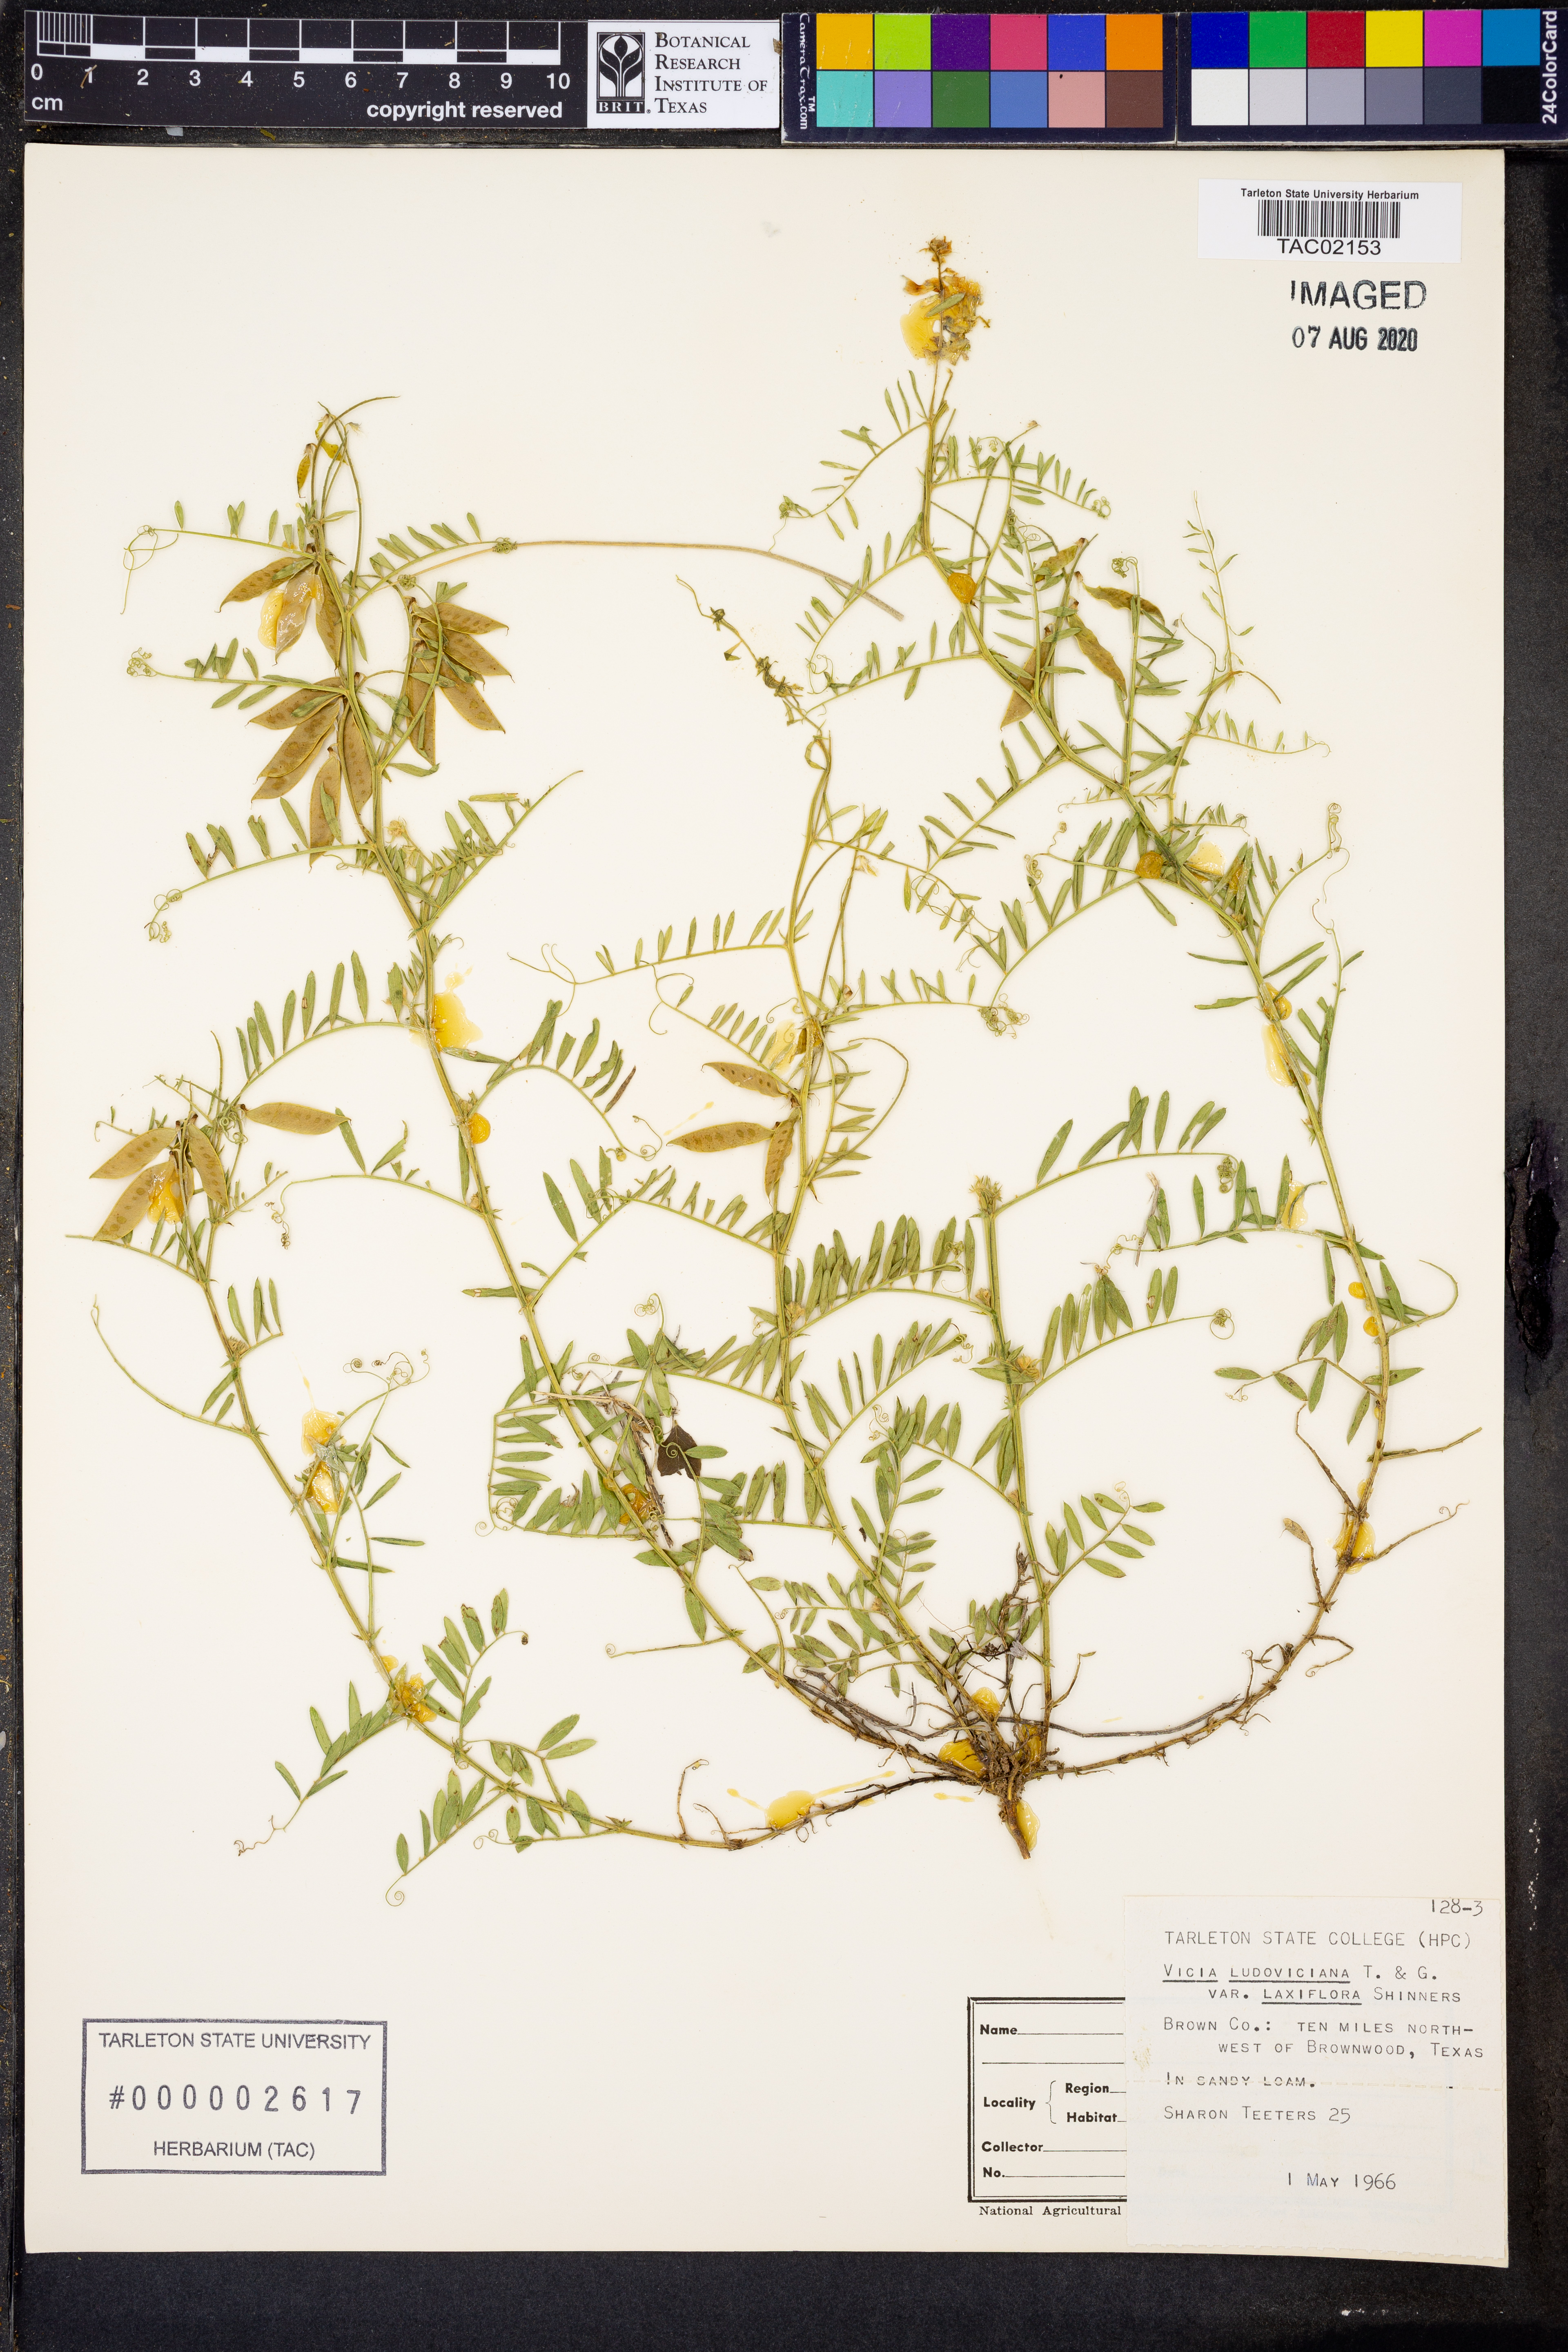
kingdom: Plantae
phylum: Tracheophyta
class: Magnoliopsida
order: Fabales
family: Fabaceae
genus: Vicia
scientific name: Vicia ludoviciana
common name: Louisiana vetch
